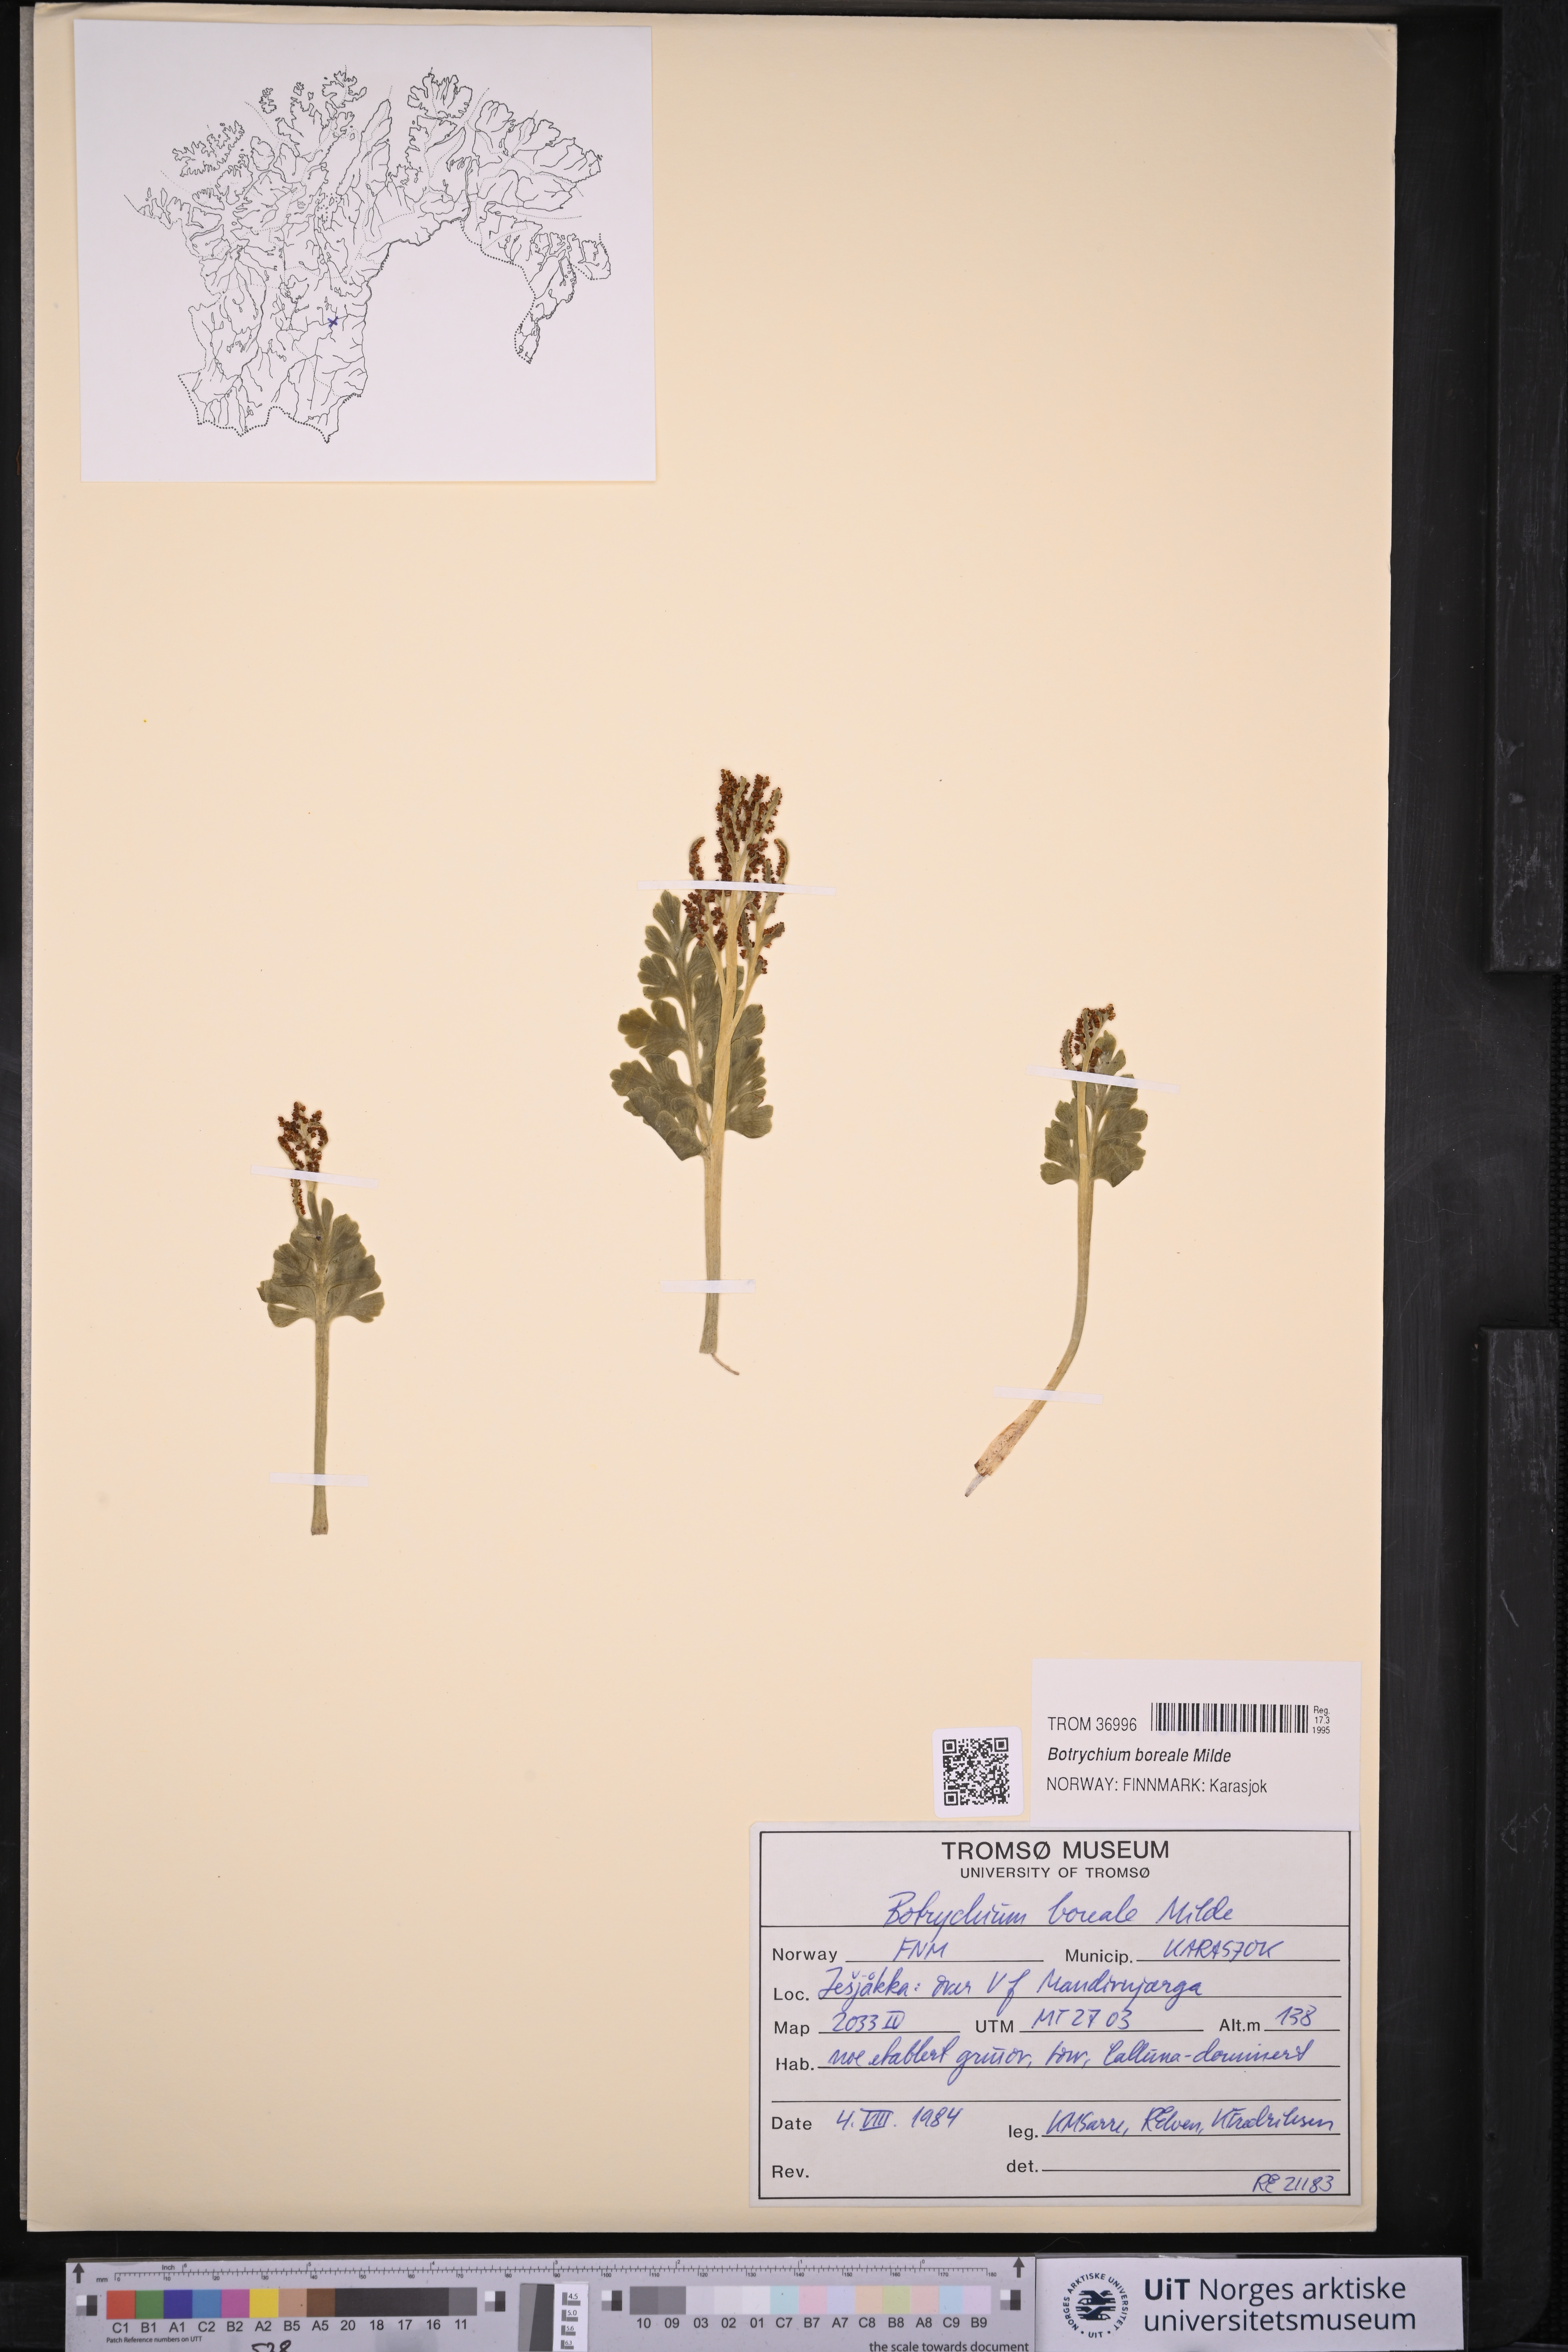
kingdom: Plantae
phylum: Tracheophyta
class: Polypodiopsida
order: Ophioglossales
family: Ophioglossaceae
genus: Botrychium
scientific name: Botrychium boreale
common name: Boreal moonwort
